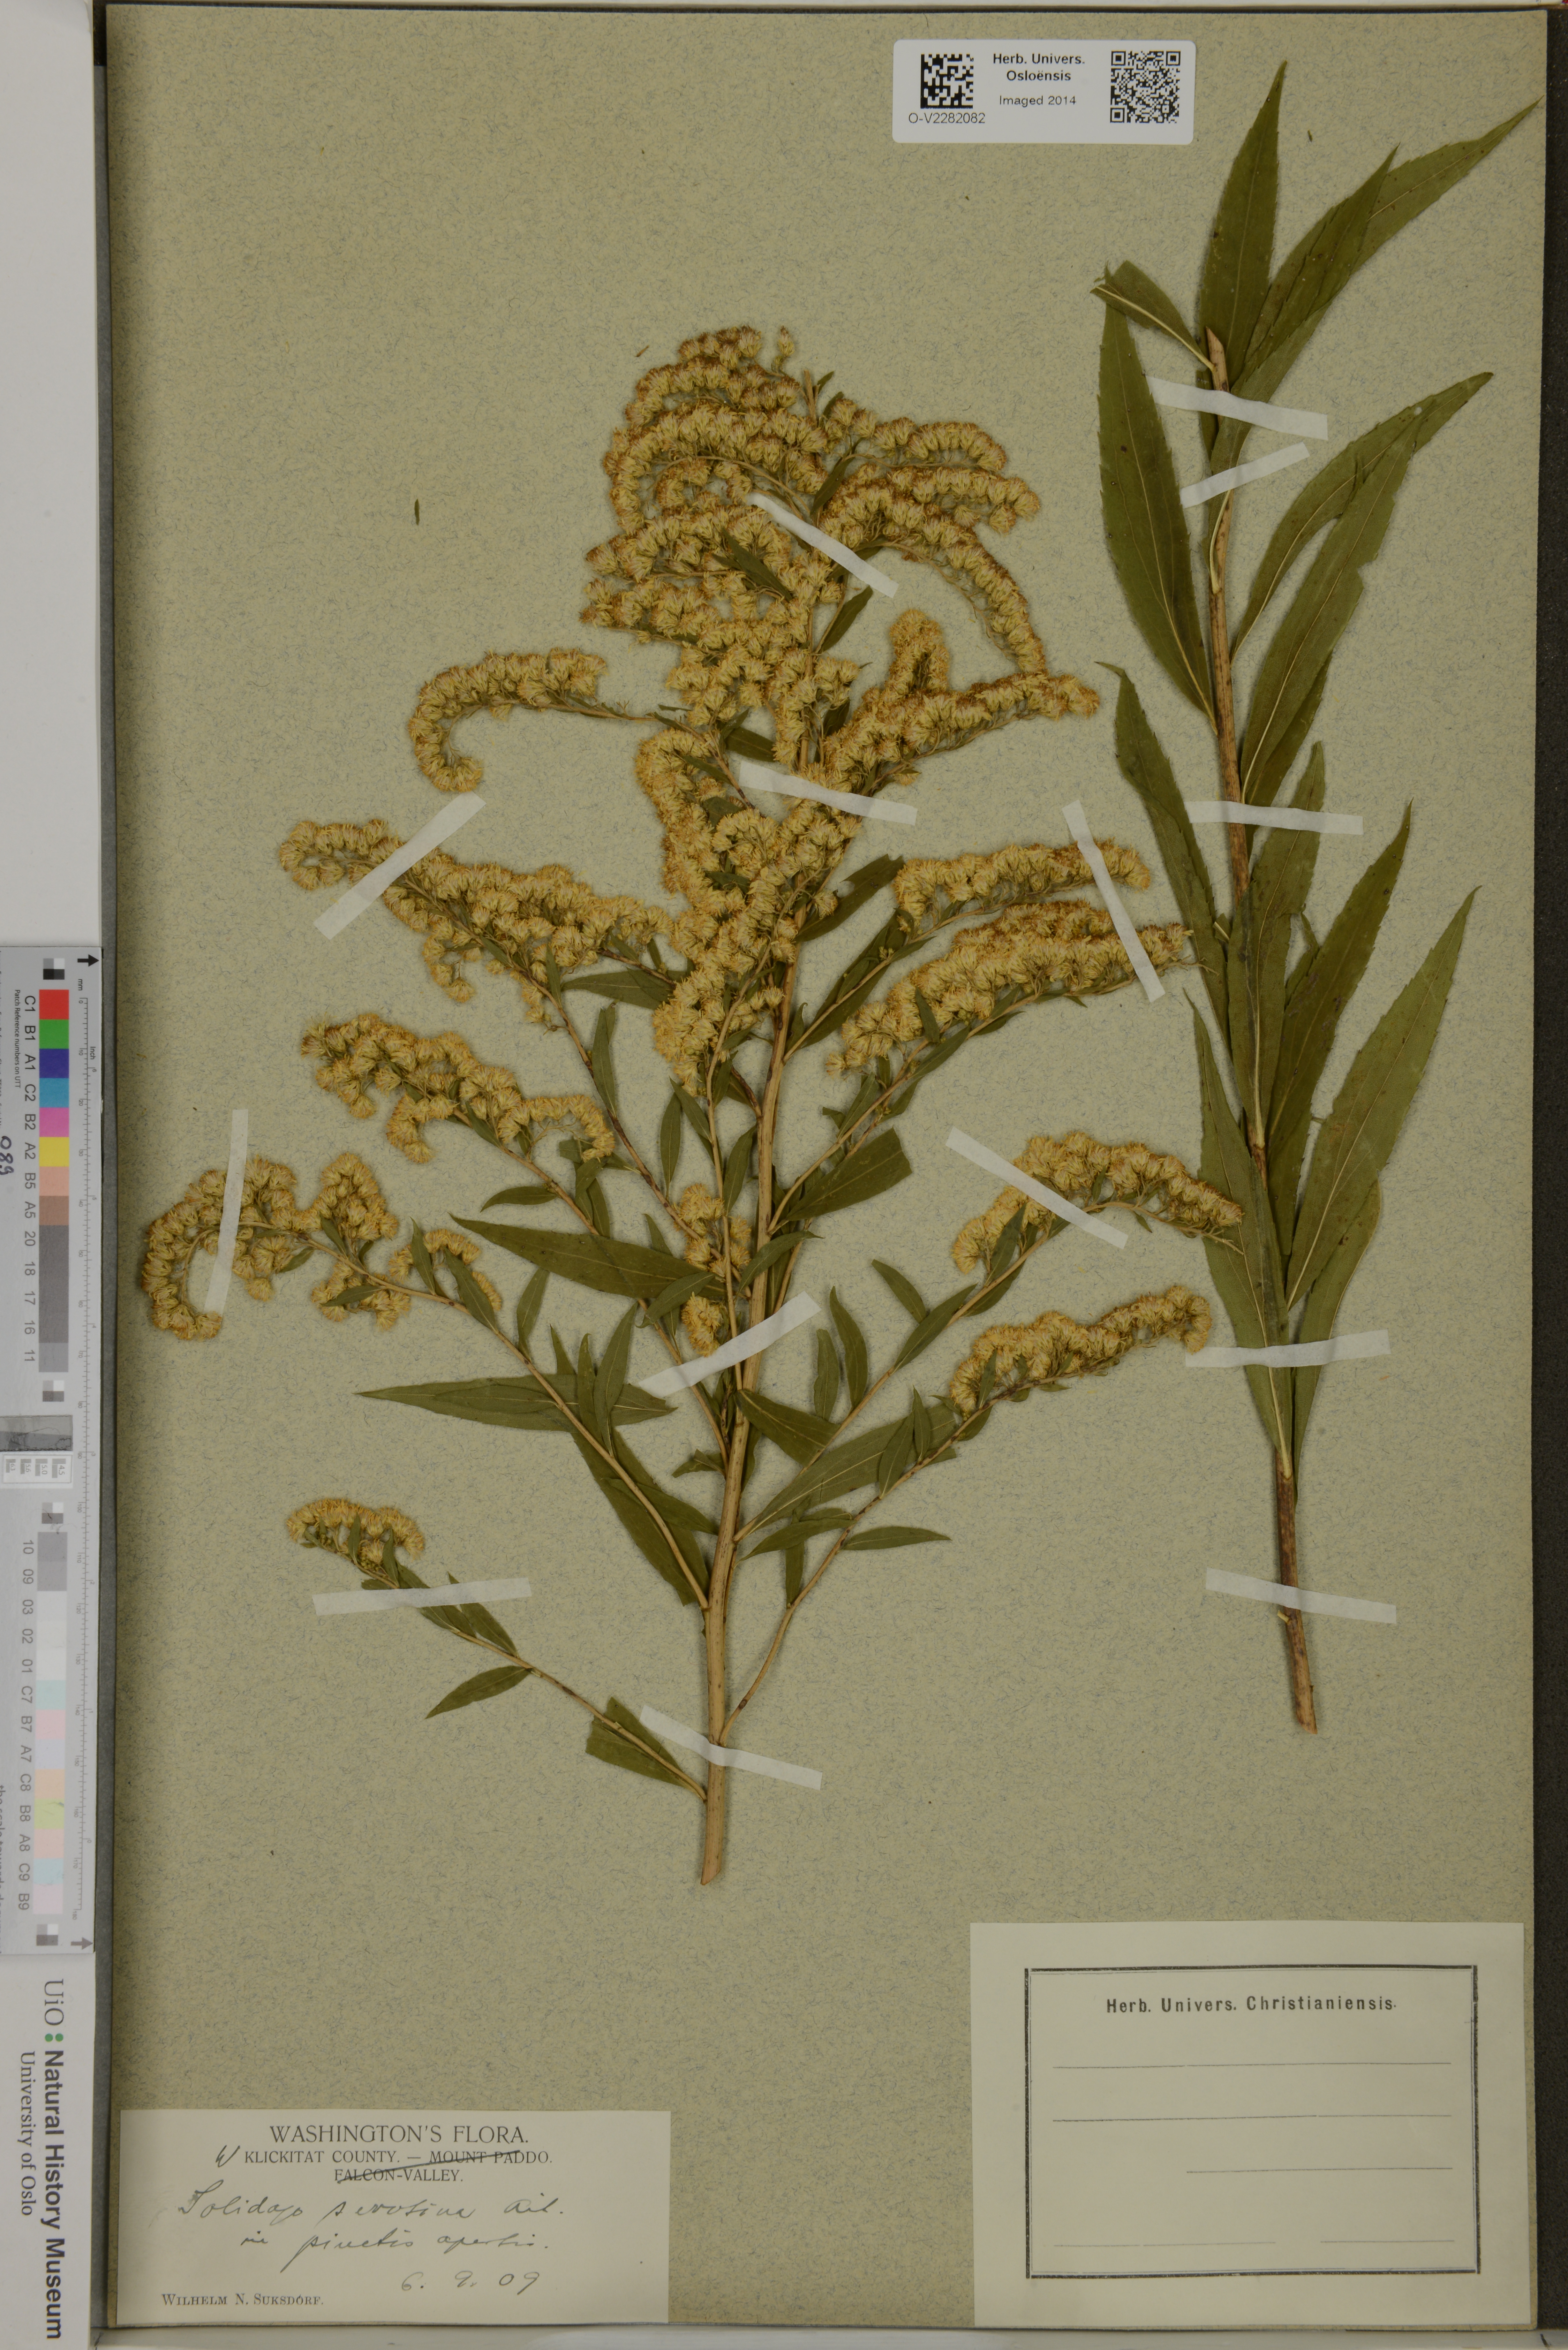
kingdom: Plantae
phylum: Tracheophyta
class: Magnoliopsida
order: Asterales
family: Asteraceae
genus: Solidago
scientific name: Solidago gigantea
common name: Giant goldenrod
